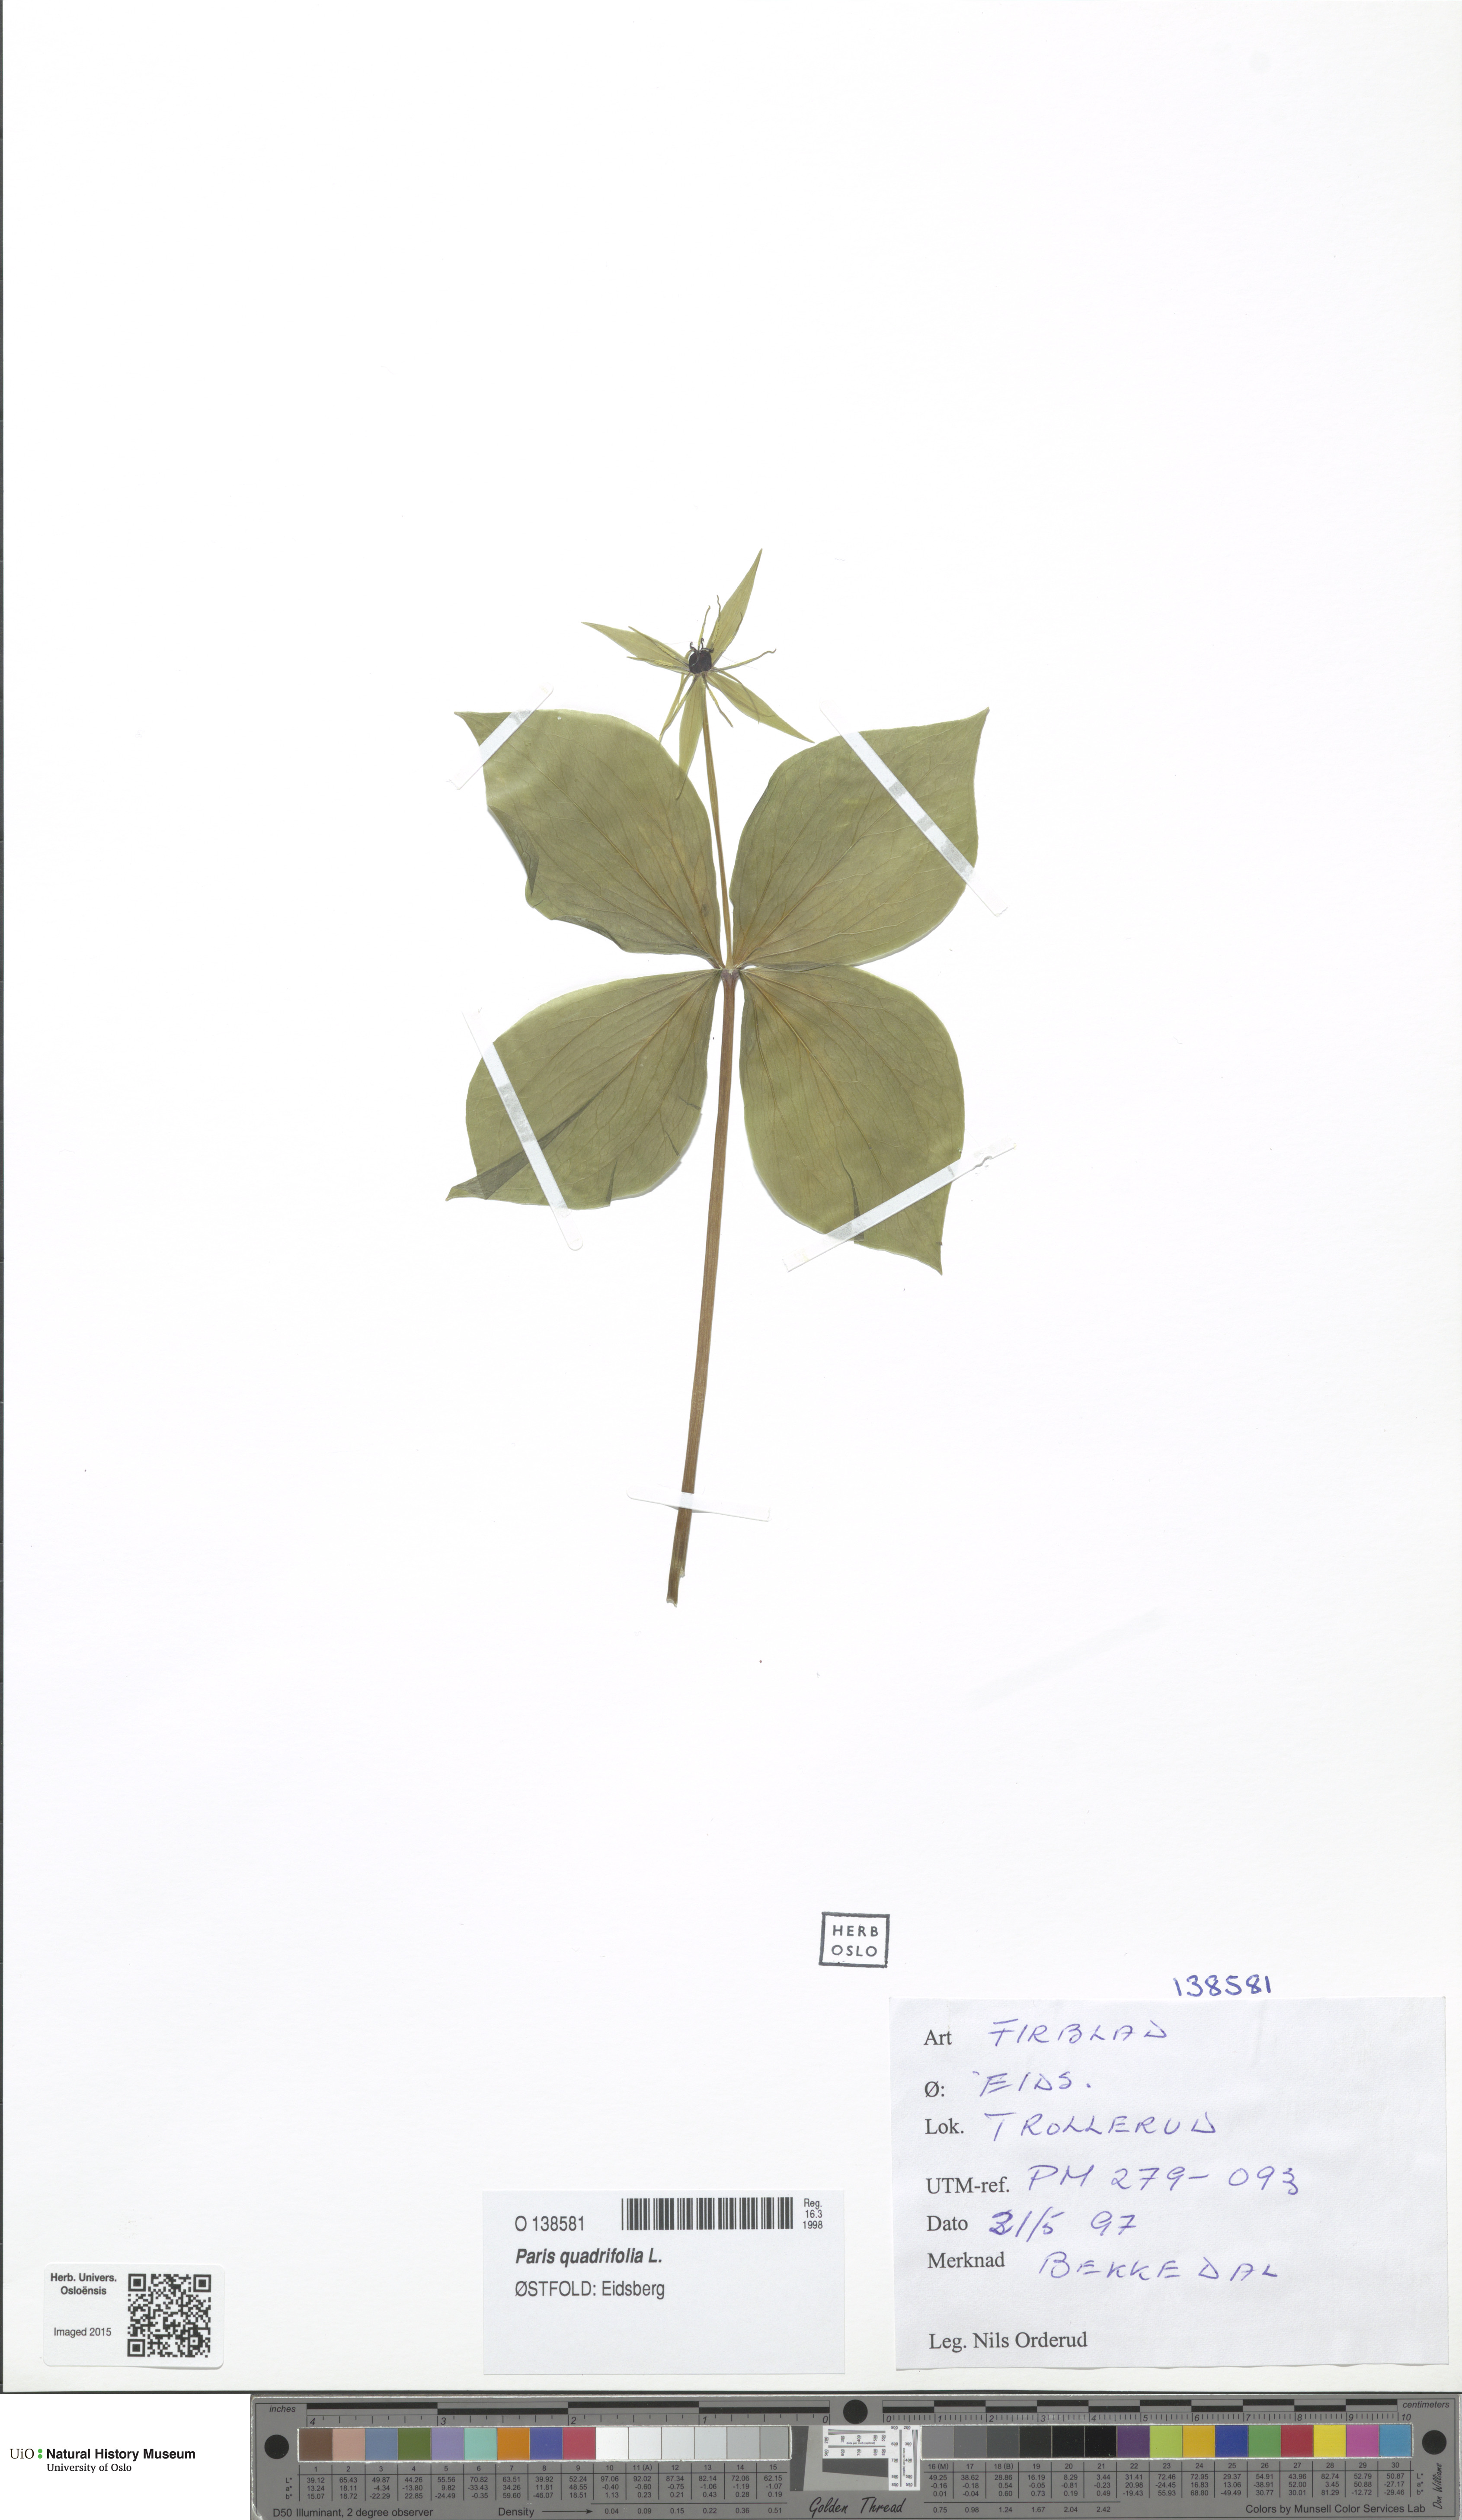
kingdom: Plantae
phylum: Tracheophyta
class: Liliopsida
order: Liliales
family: Melanthiaceae
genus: Paris
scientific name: Paris quadrifolia
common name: Herb-paris
